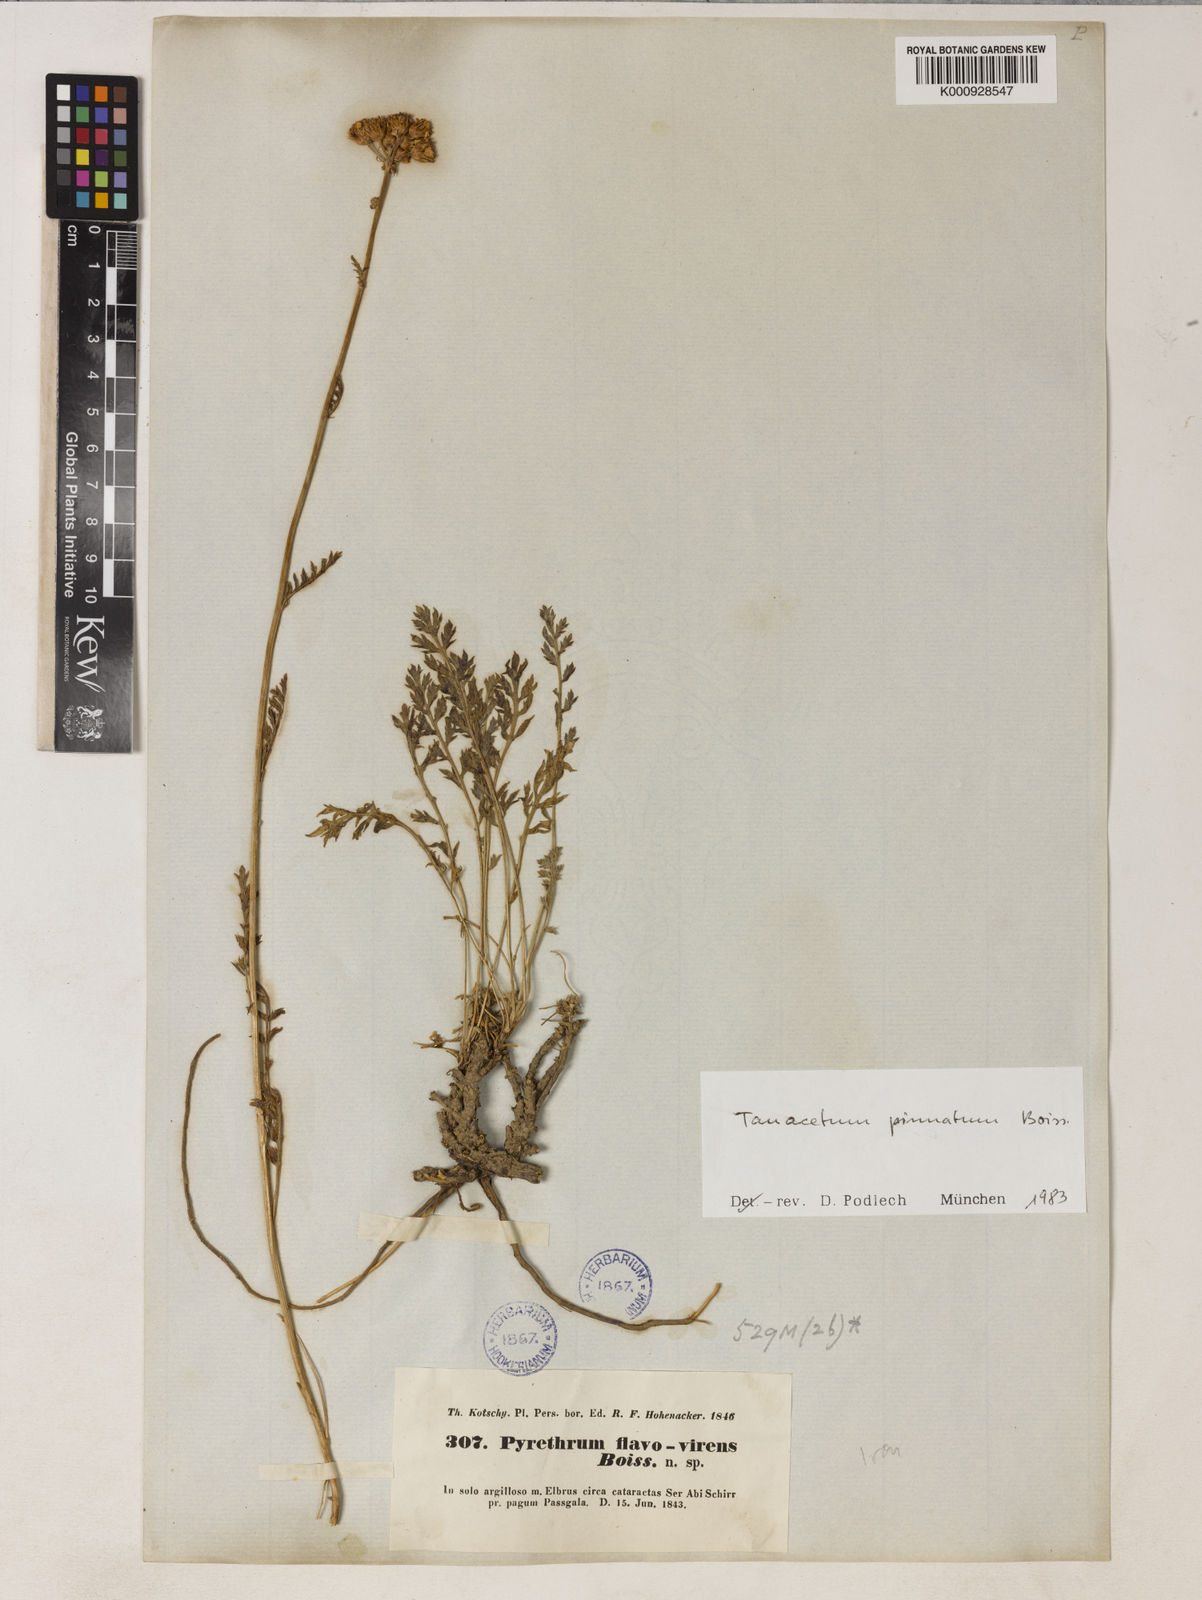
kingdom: Plantae
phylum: Tracheophyta
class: Magnoliopsida
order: Asterales
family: Asteraceae
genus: Tanacetum
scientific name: Tanacetum pinnatum
